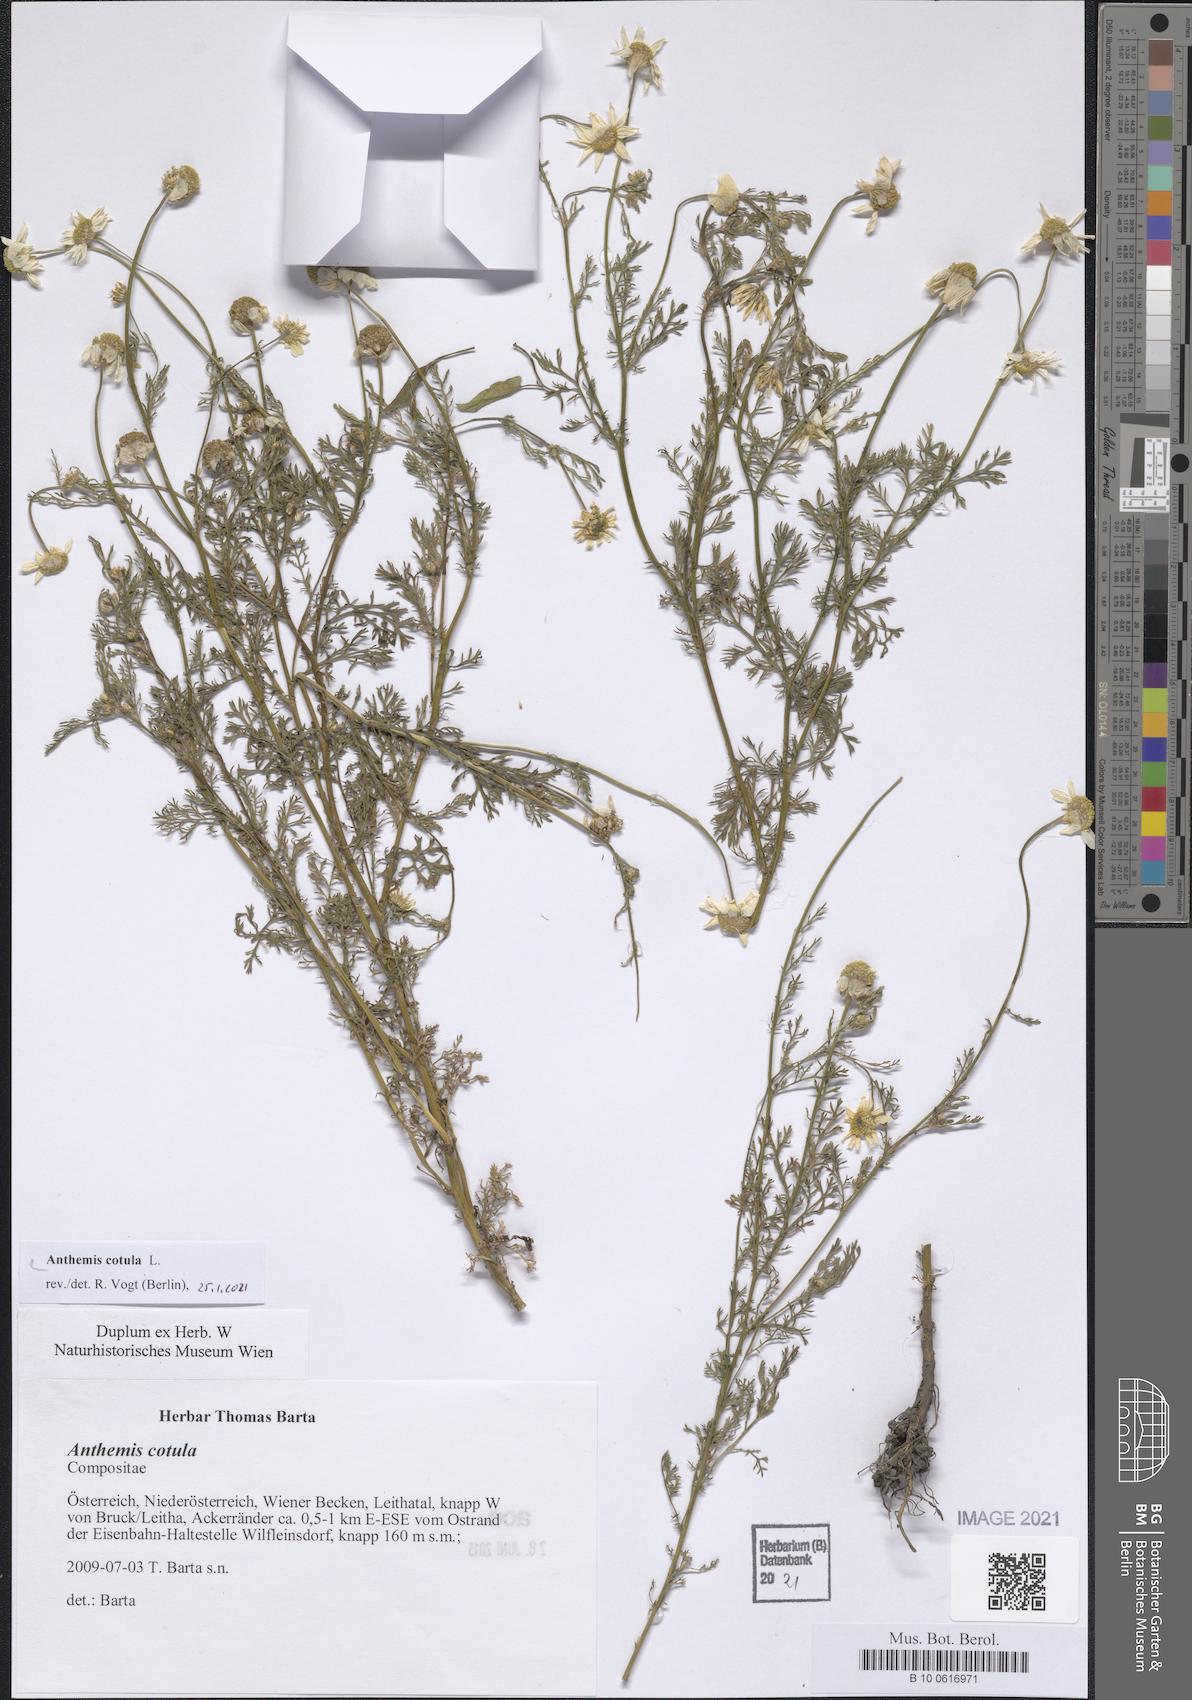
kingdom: Plantae
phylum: Tracheophyta
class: Magnoliopsida
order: Asterales
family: Asteraceae
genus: Anthemis
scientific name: Anthemis cotula
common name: Stinking chamomile
